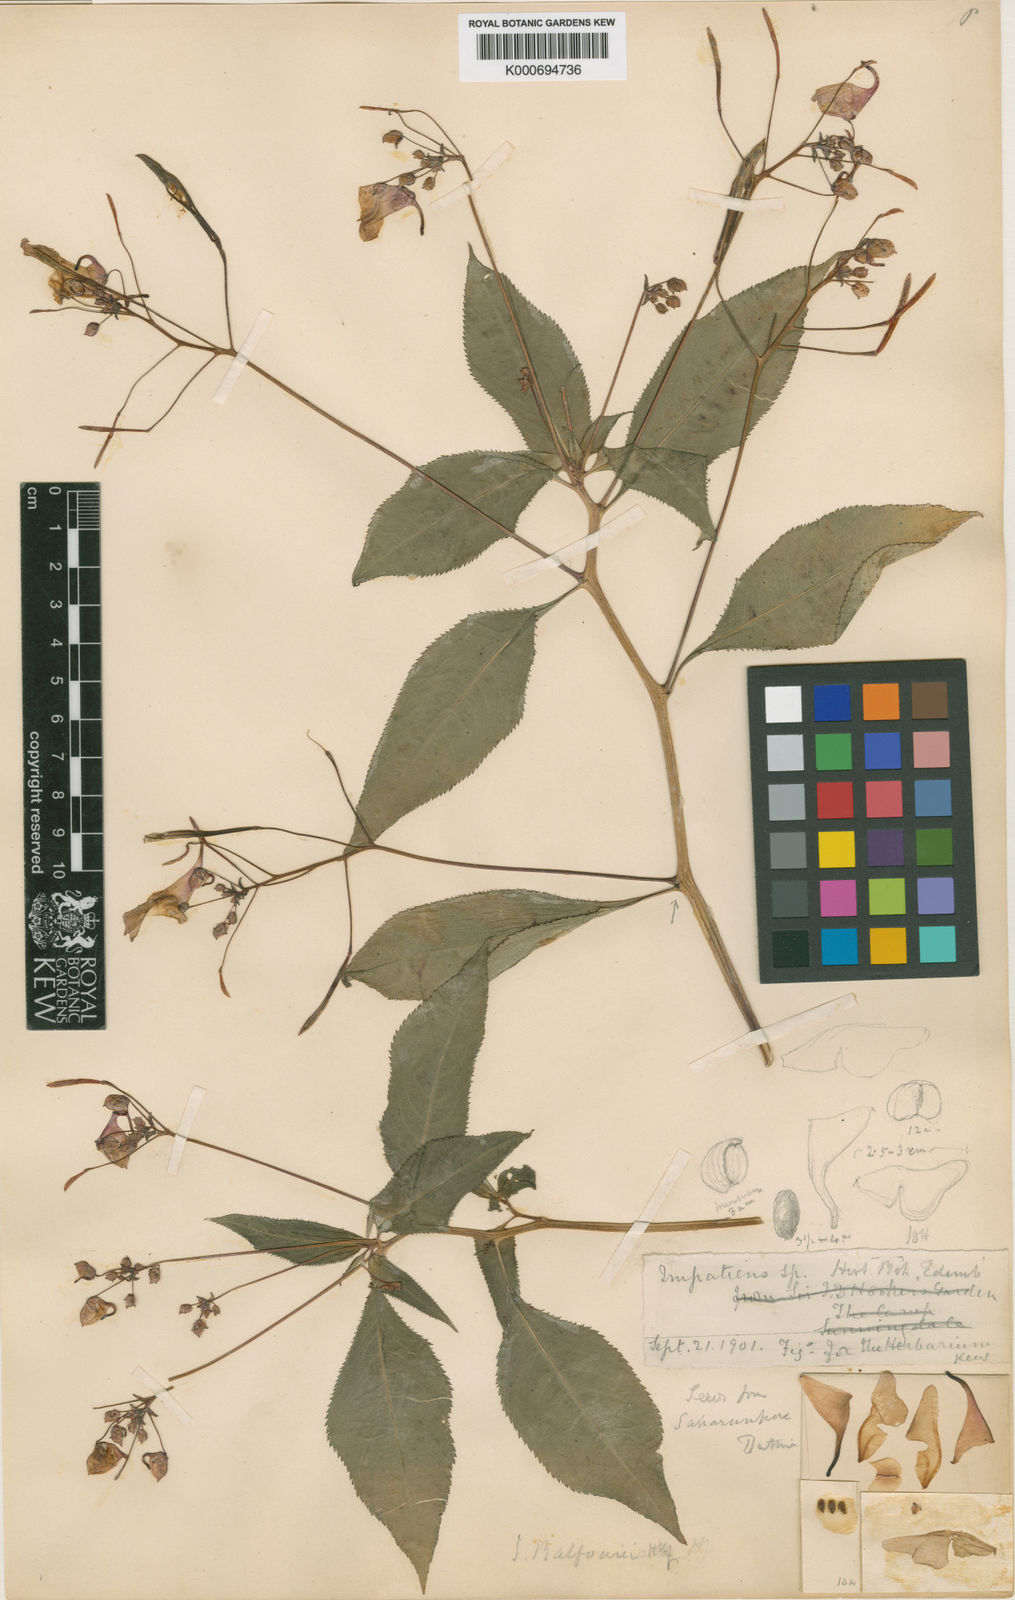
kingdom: Plantae
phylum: Tracheophyta
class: Magnoliopsida
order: Ericales
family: Balsaminaceae
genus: Impatiens
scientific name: Impatiens balfourii
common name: Balfour's touch-me-not
